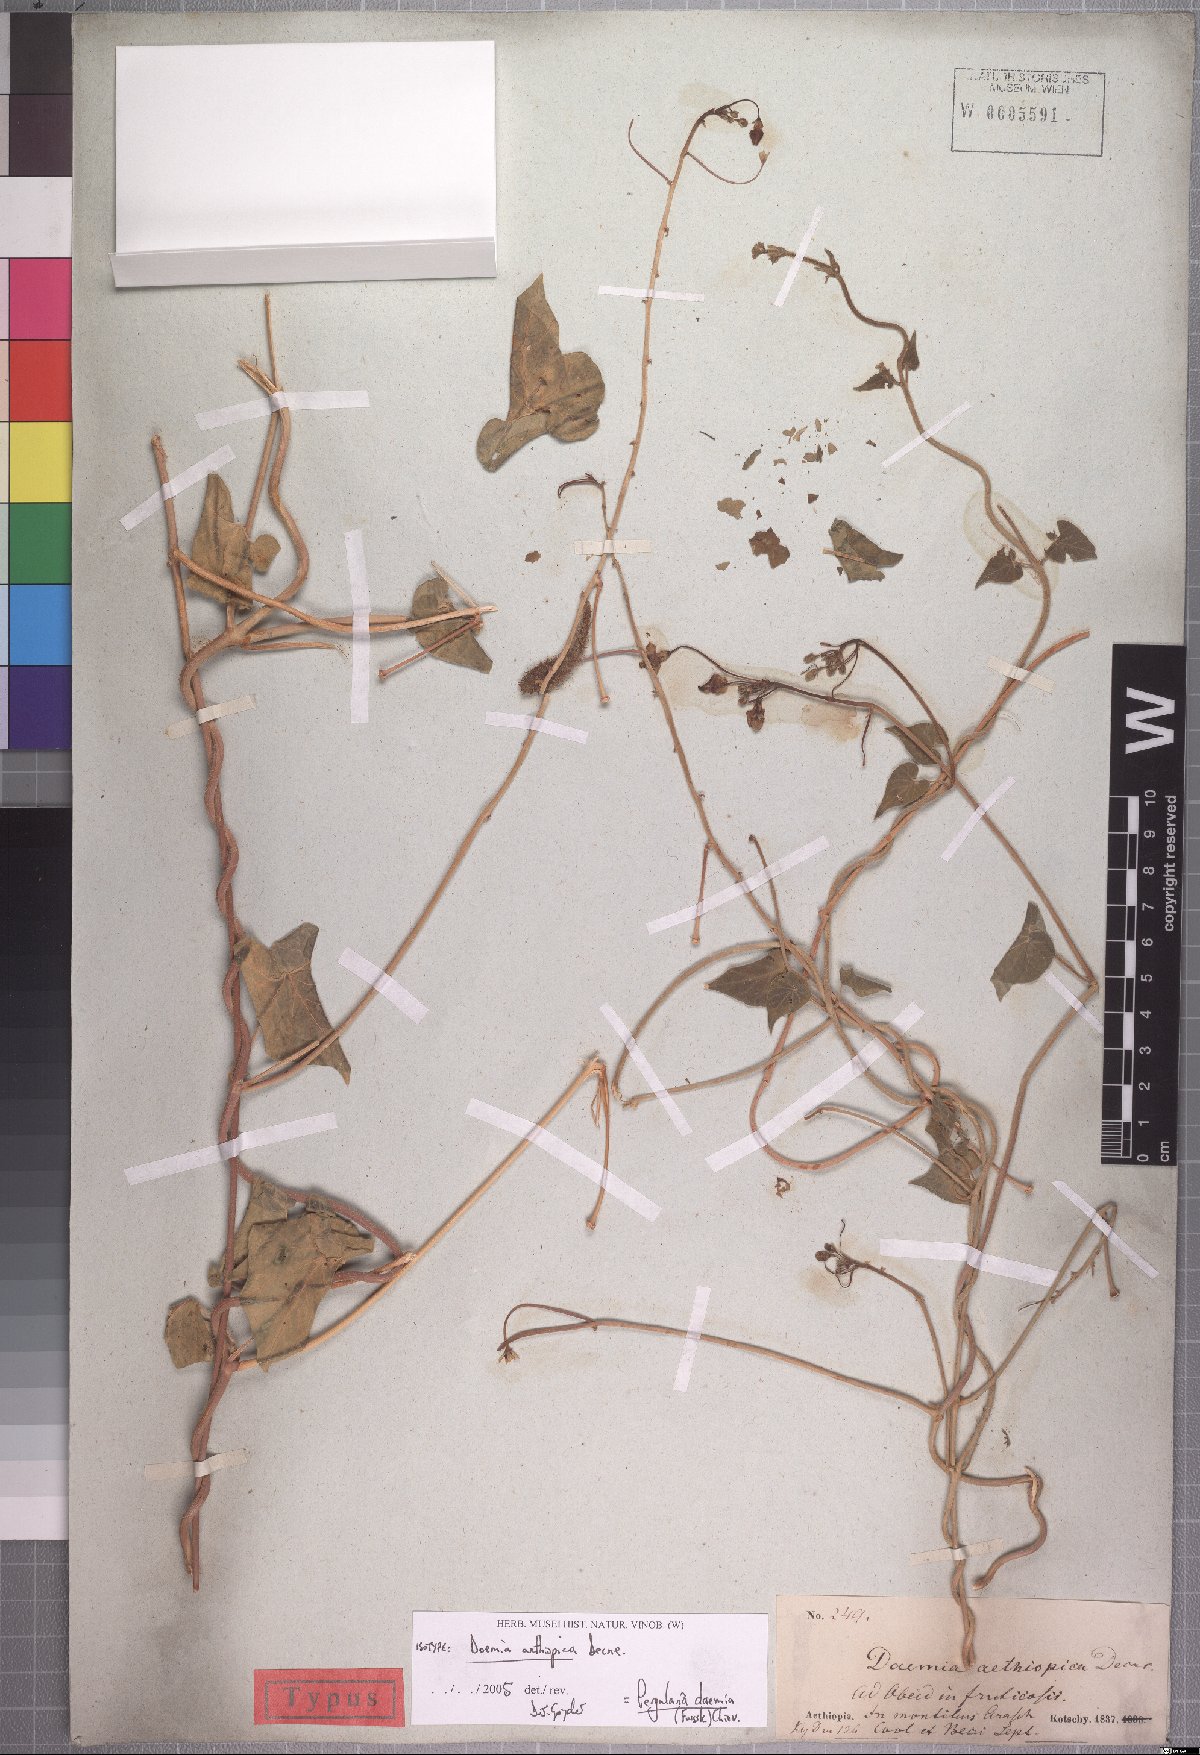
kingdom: Plantae
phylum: Tracheophyta
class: Magnoliopsida
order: Gentianales
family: Apocynaceae
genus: Pergularia
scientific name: Pergularia daemia
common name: Trellis-vine
